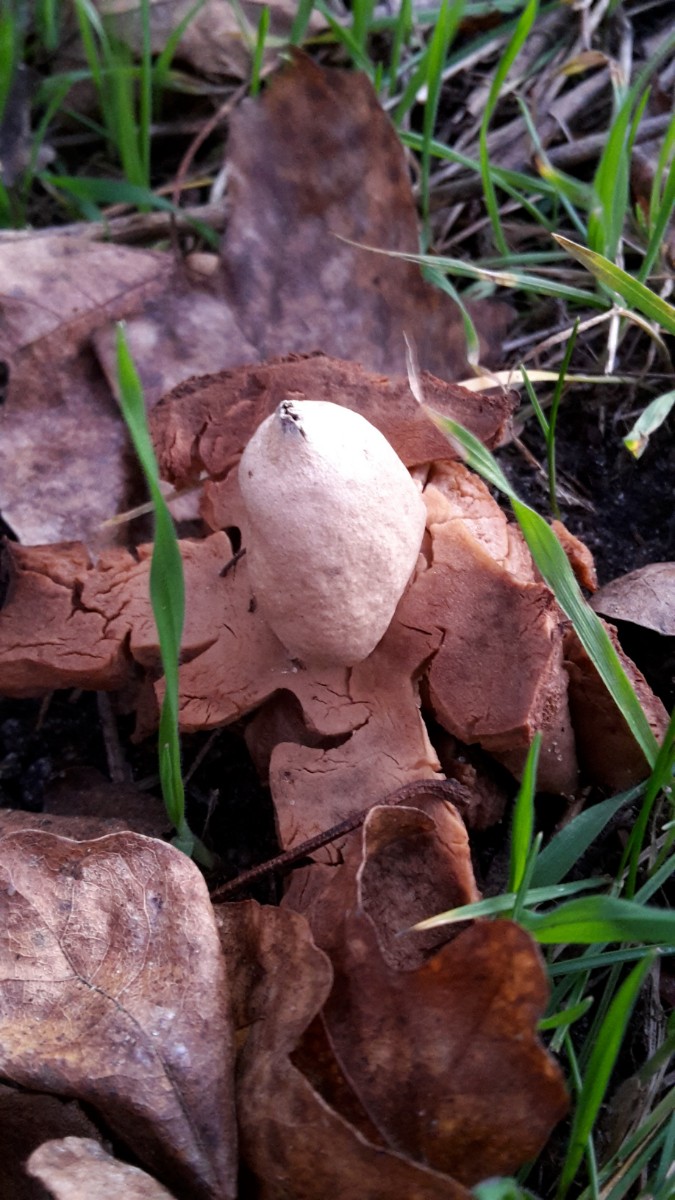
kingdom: Fungi
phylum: Basidiomycota
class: Agaricomycetes
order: Geastrales
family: Geastraceae
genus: Geastrum
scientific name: Geastrum fimbriatum
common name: frynset stjernebold
